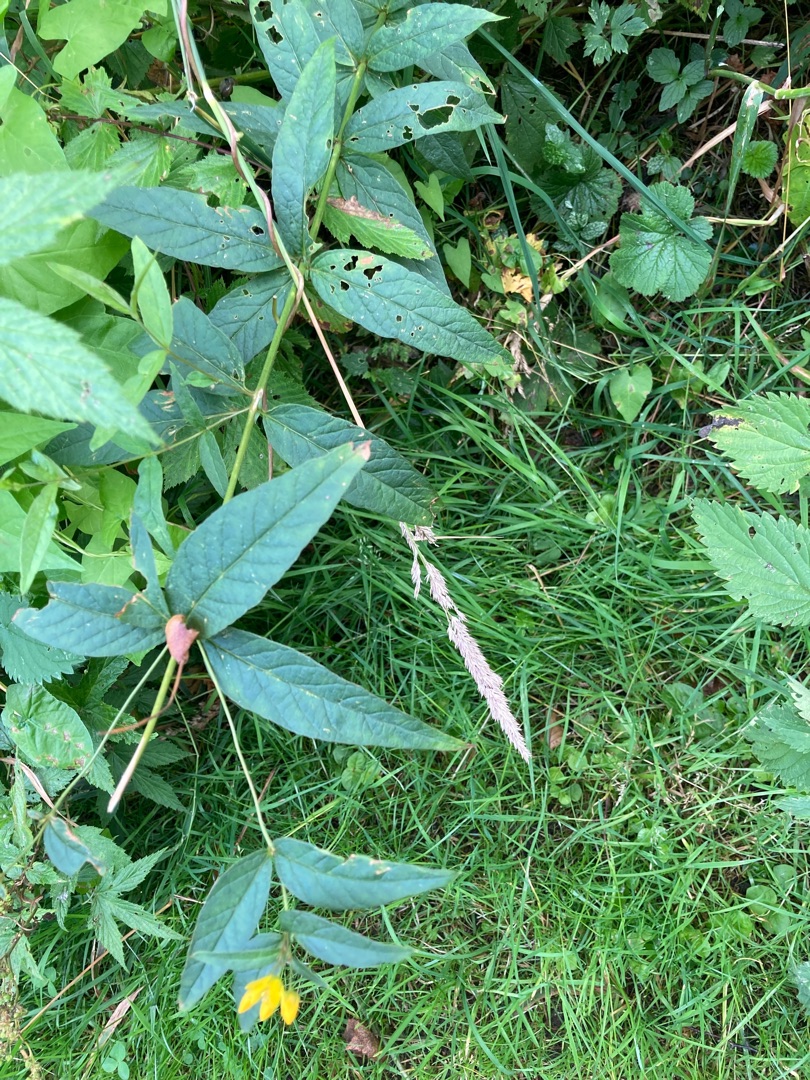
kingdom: Plantae
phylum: Tracheophyta
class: Magnoliopsida
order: Ericales
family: Primulaceae
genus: Lysimachia
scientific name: Lysimachia vulgaris
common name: Almindelig fredløs
